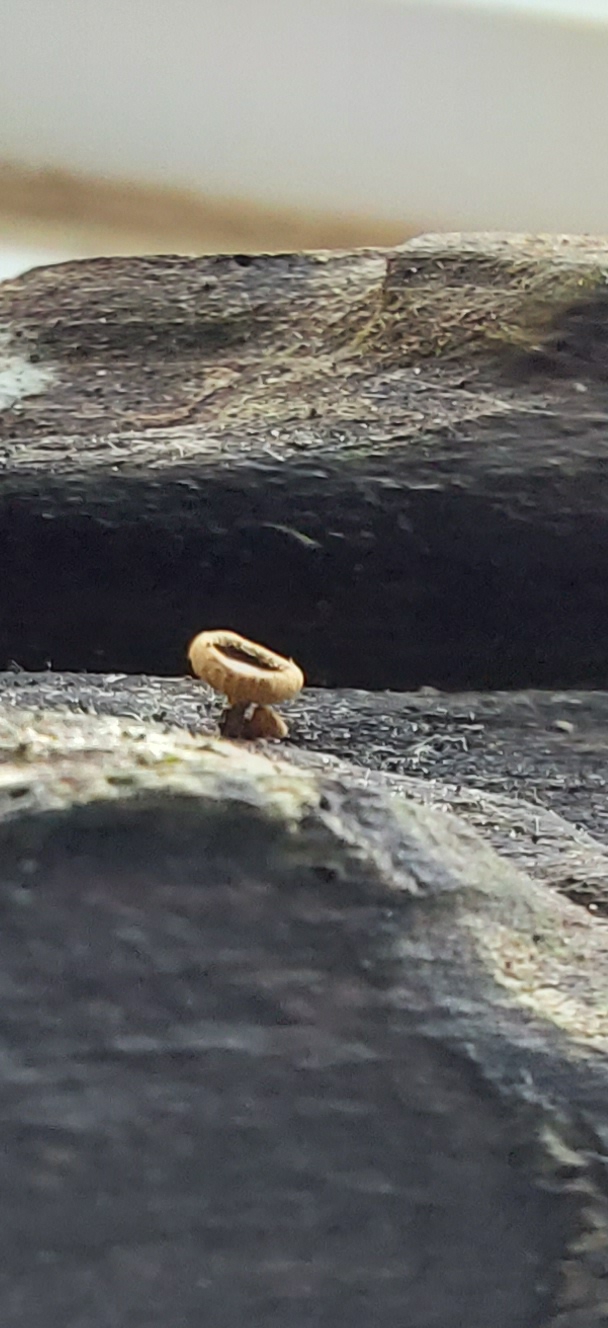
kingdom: Fungi
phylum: Ascomycota
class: Leotiomycetes
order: Helotiales
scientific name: Helotiales
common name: stilkskiveordenen
